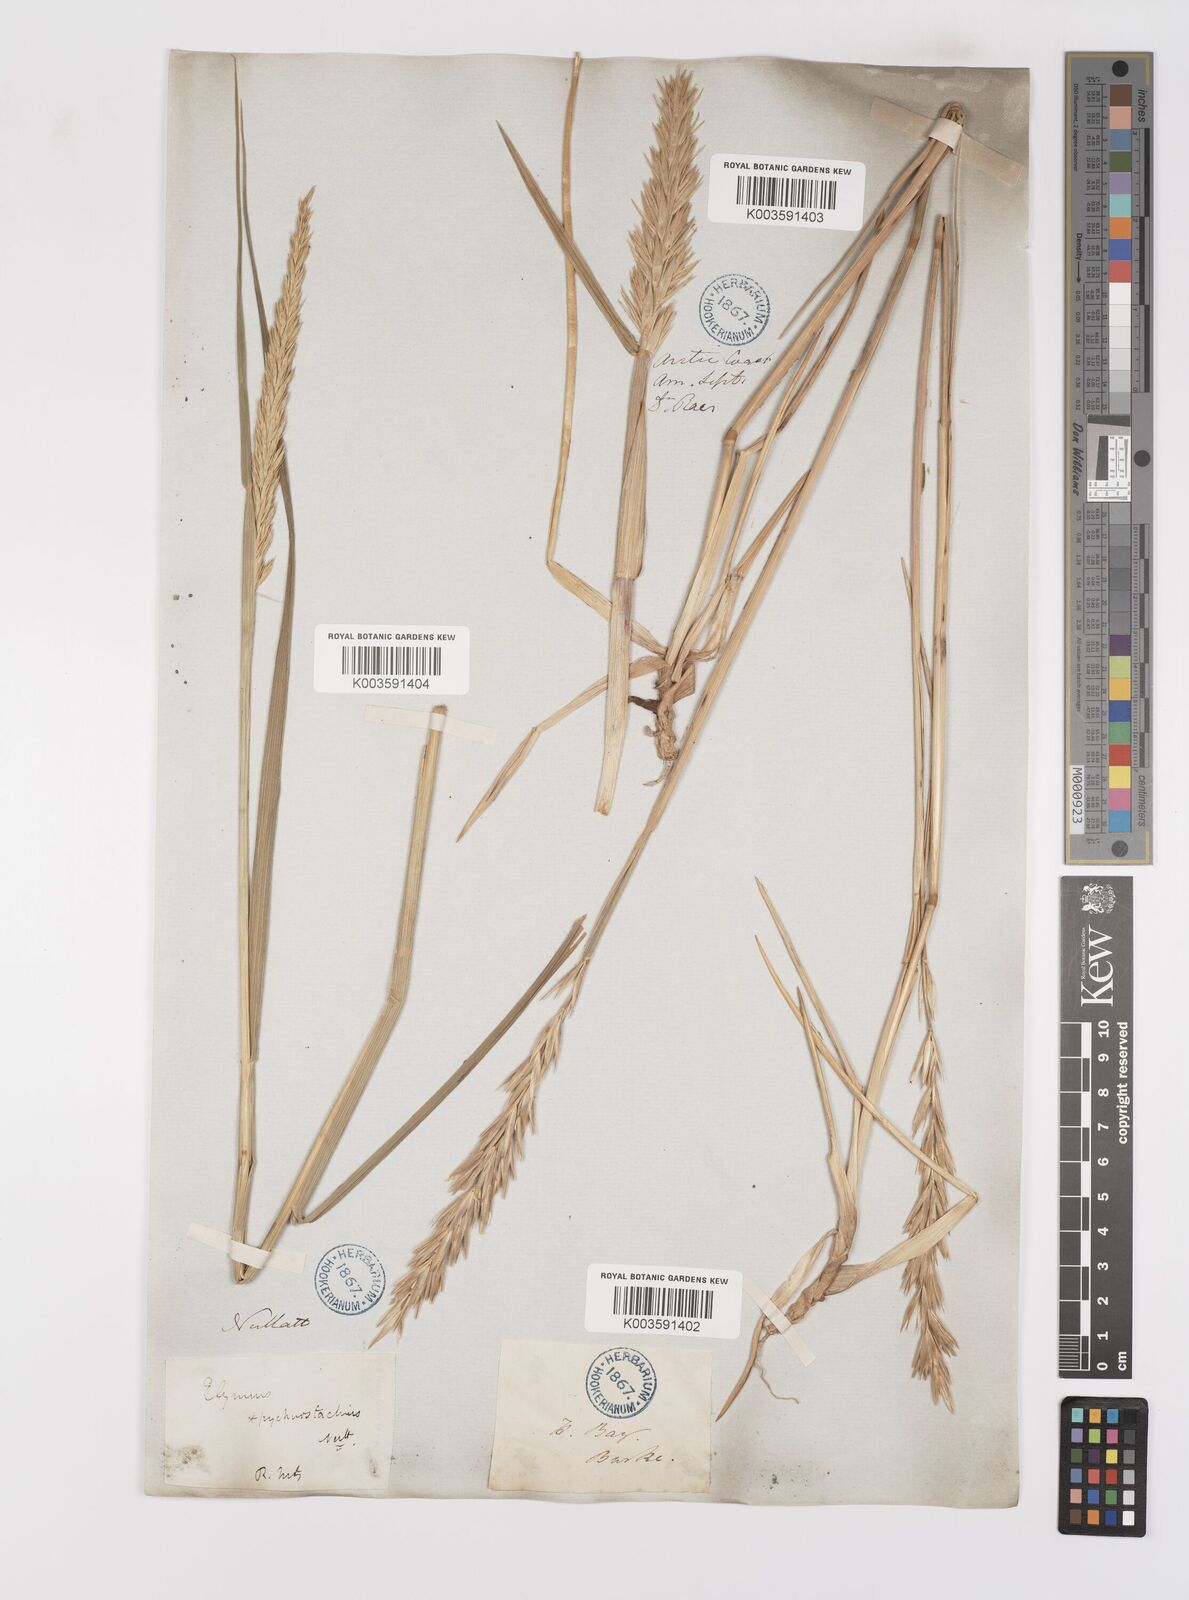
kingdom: Plantae
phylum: Tracheophyta
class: Liliopsida
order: Poales
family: Poaceae
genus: Leymus
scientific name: Leymus mollis
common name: American dune grass
